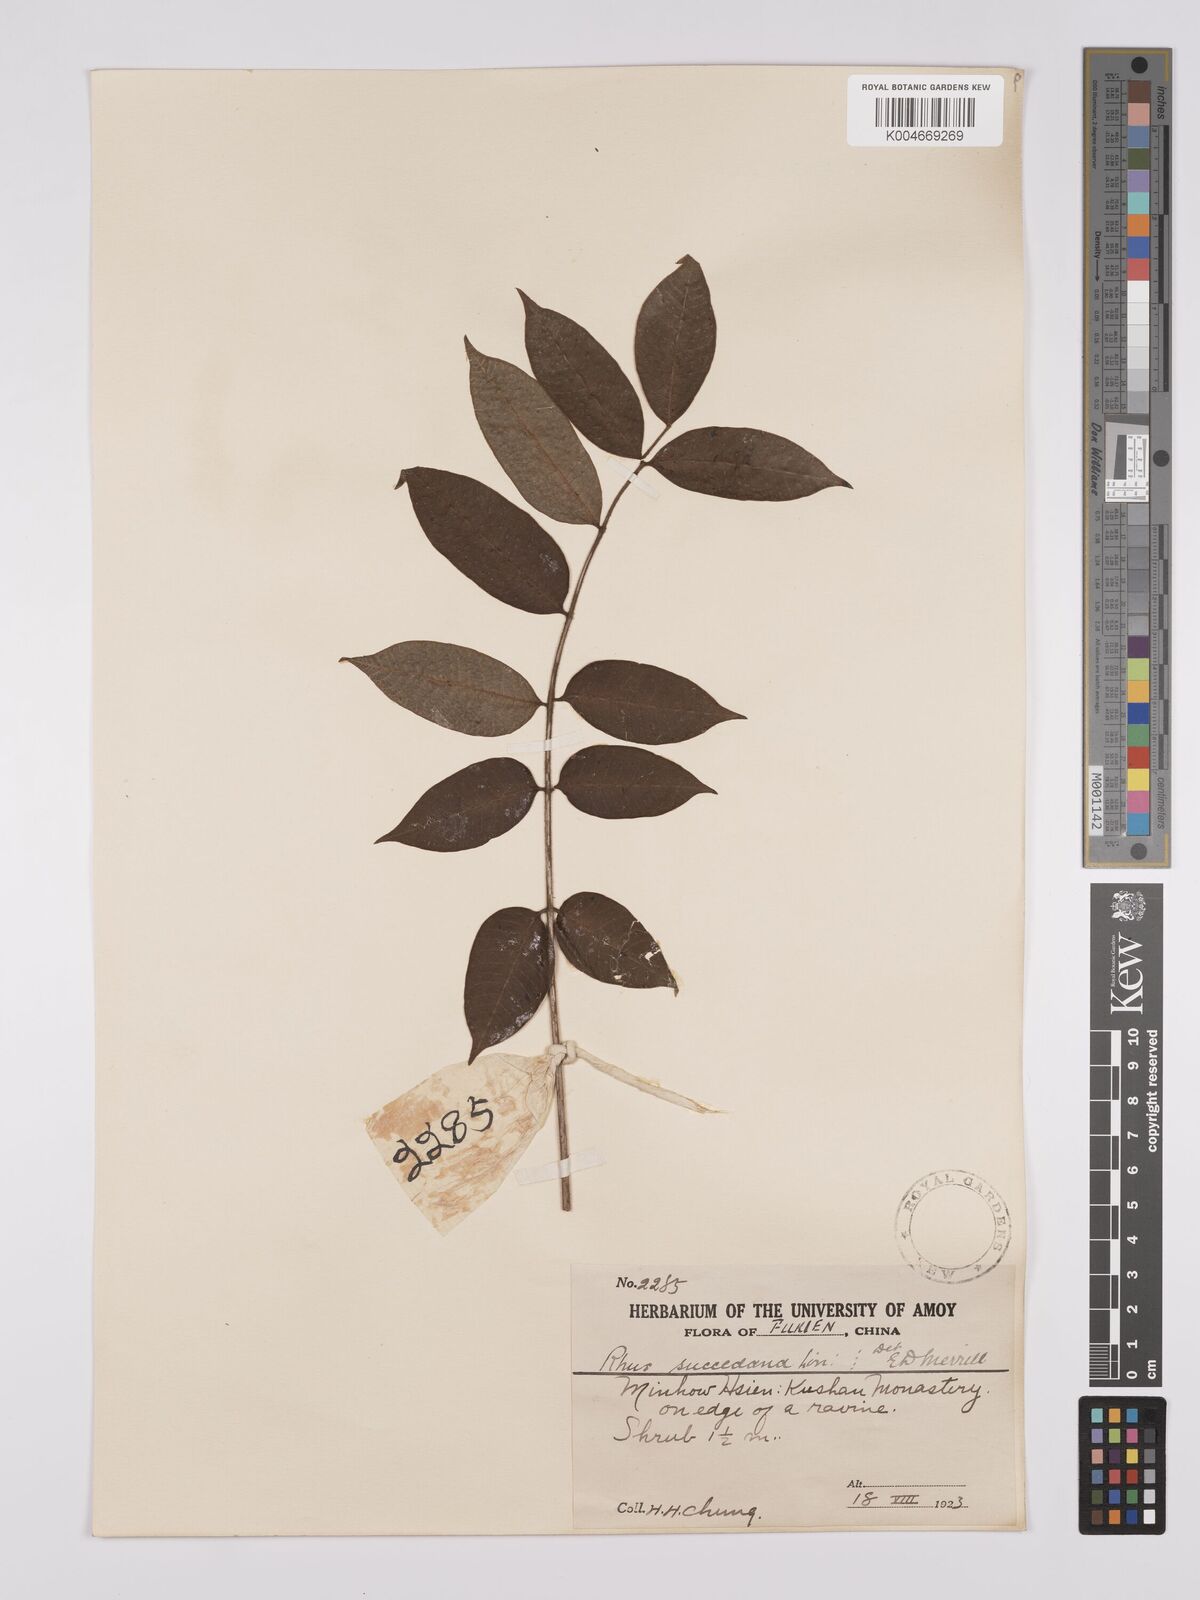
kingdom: Plantae
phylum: Tracheophyta
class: Magnoliopsida
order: Sapindales
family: Anacardiaceae
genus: Toxicodendron
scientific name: Toxicodendron succedaneum
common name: Wax tree
